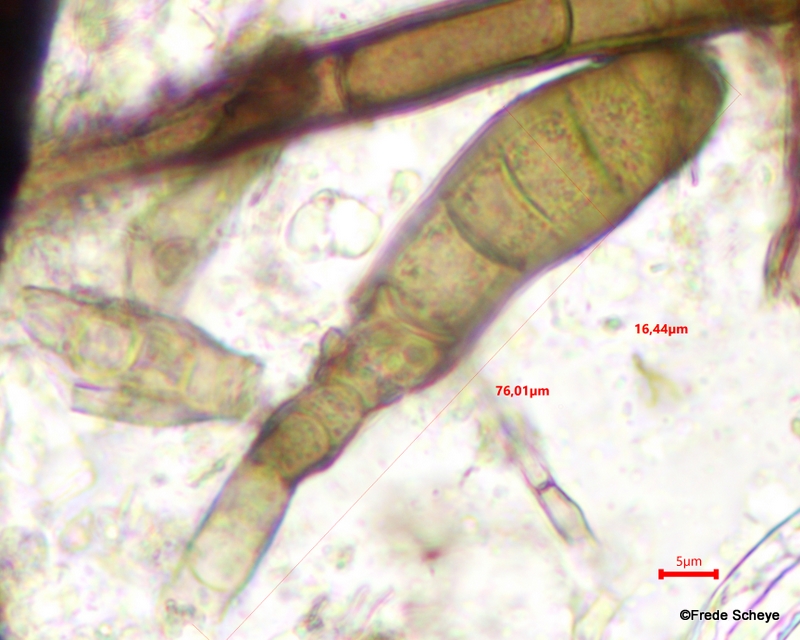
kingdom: Fungi
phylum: Ascomycota
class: Dothideomycetes
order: Pleosporales
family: Massarinaceae
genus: Helminthosporium
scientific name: Helminthosporium velutinum
